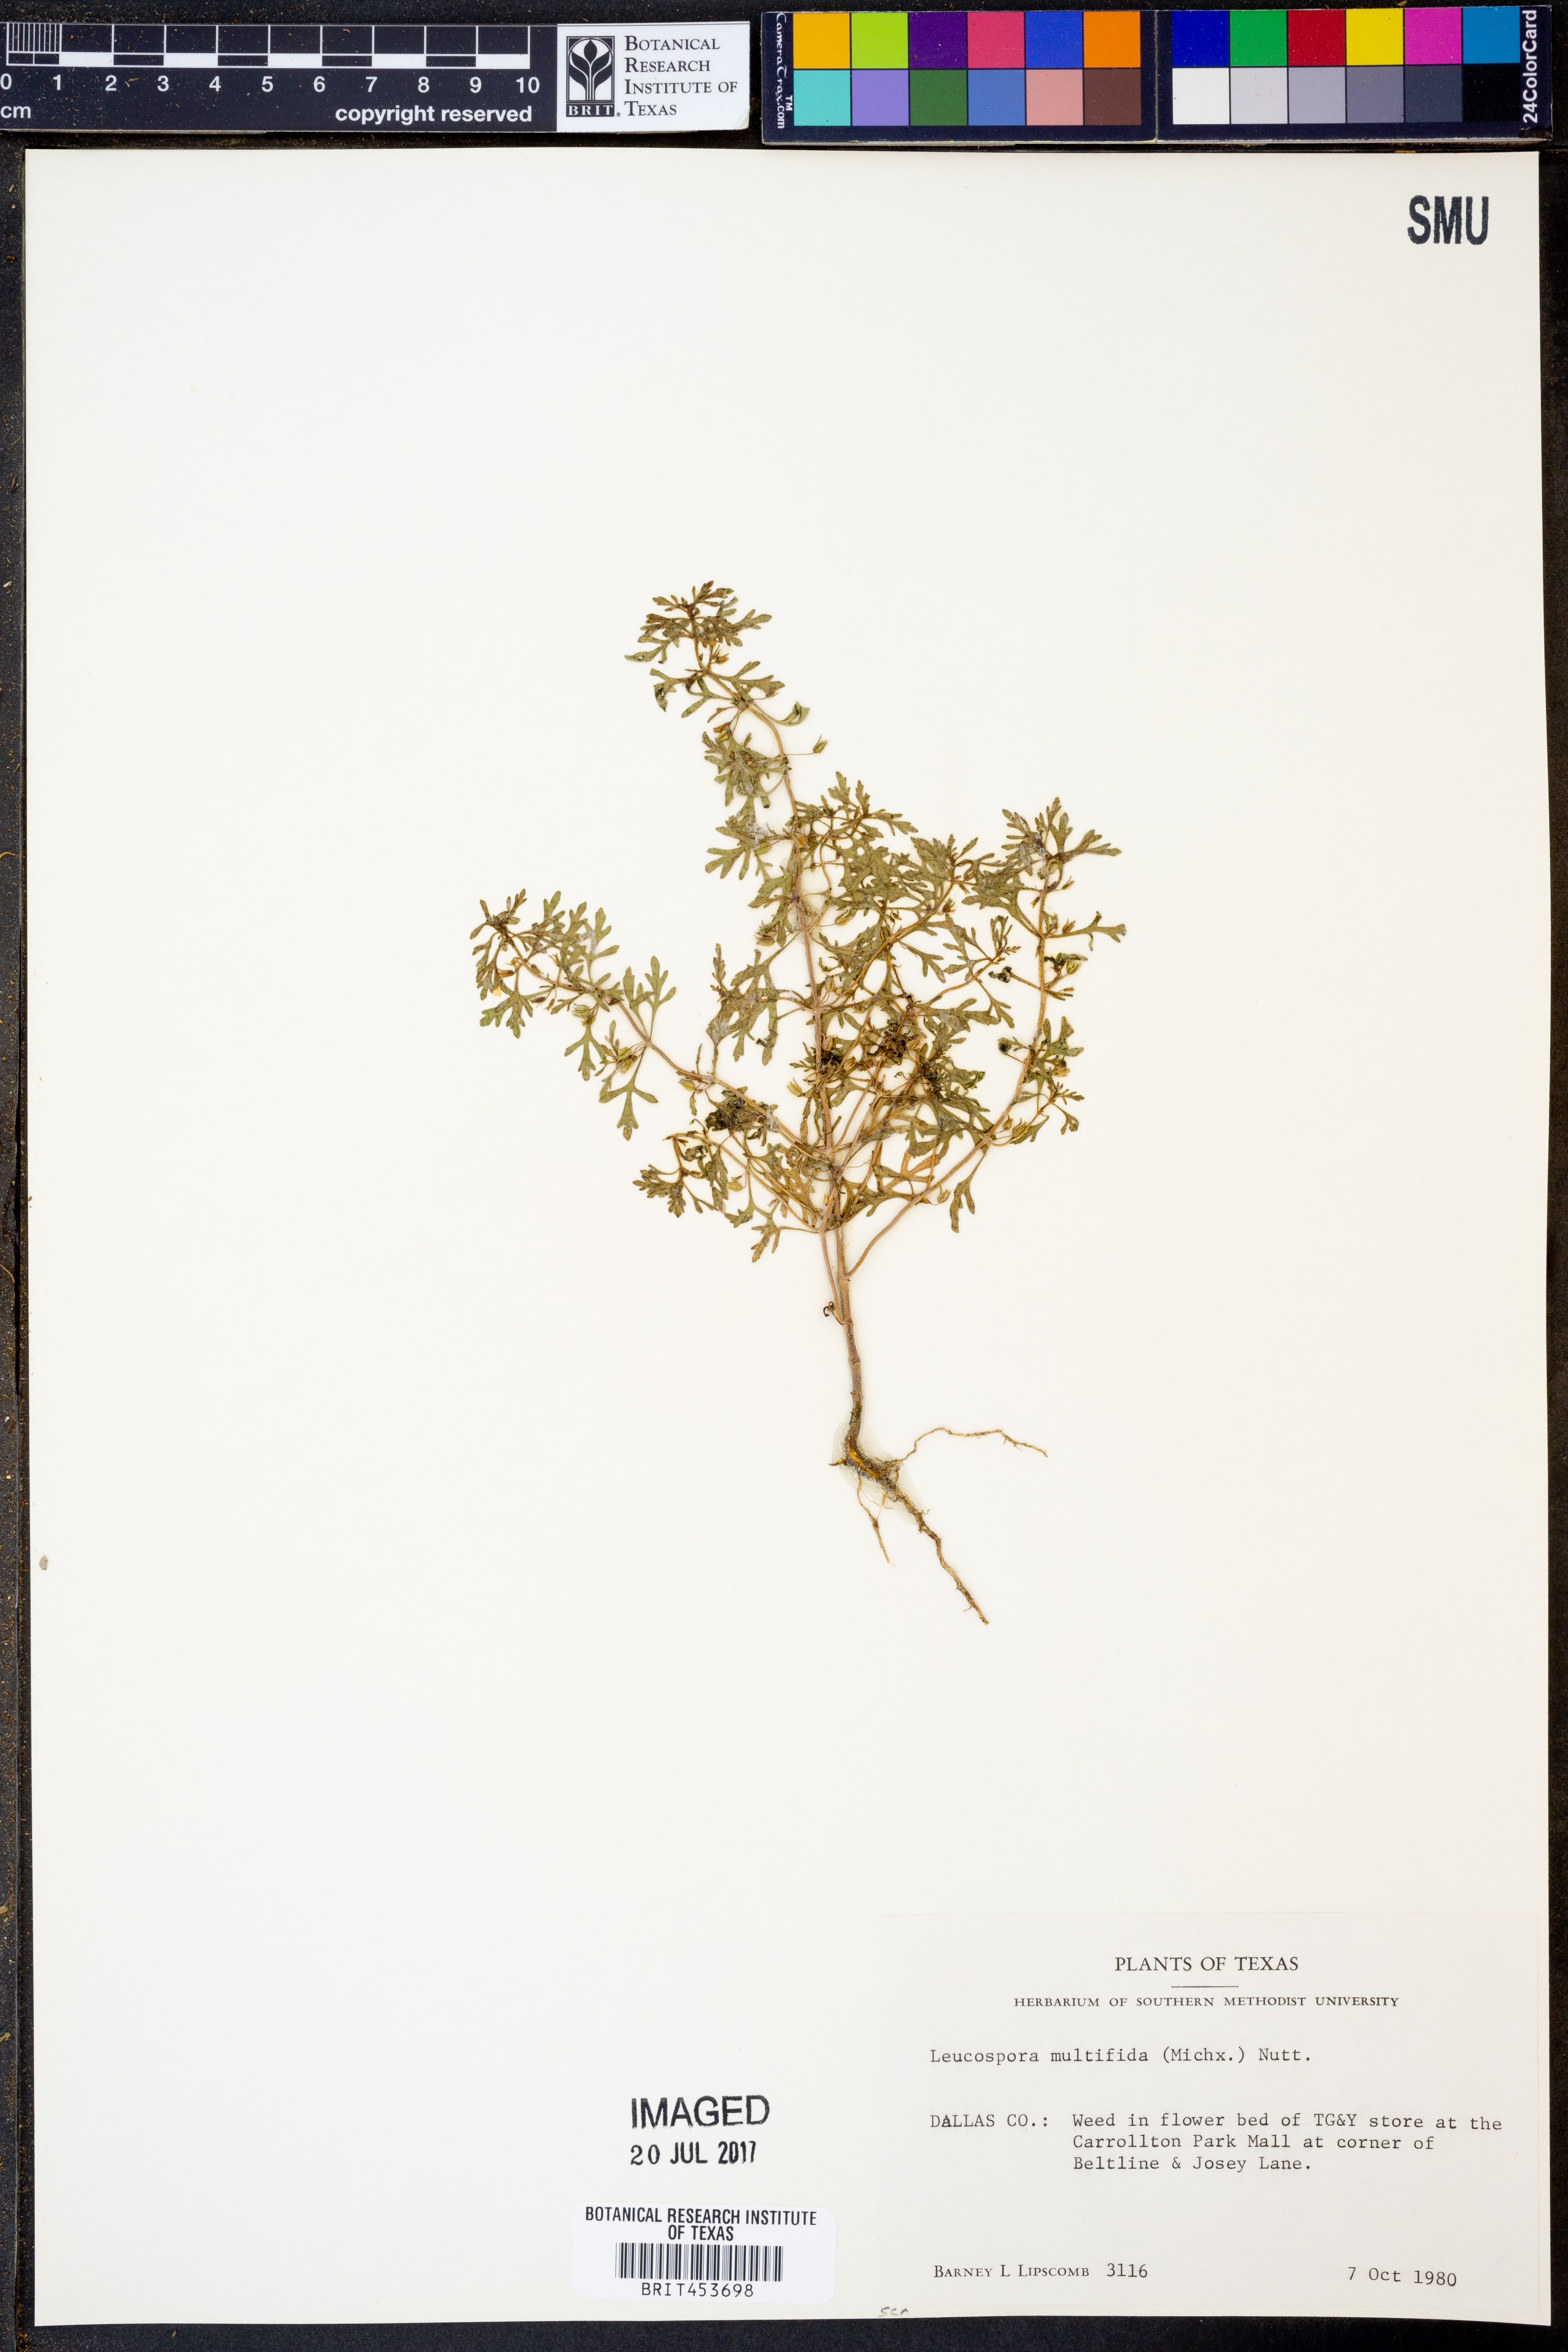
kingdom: Plantae
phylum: Tracheophyta
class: Magnoliopsida
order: Lamiales
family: Plantaginaceae
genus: Leucospora
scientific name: Leucospora multifida
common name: Narrow-leaf paleseed
